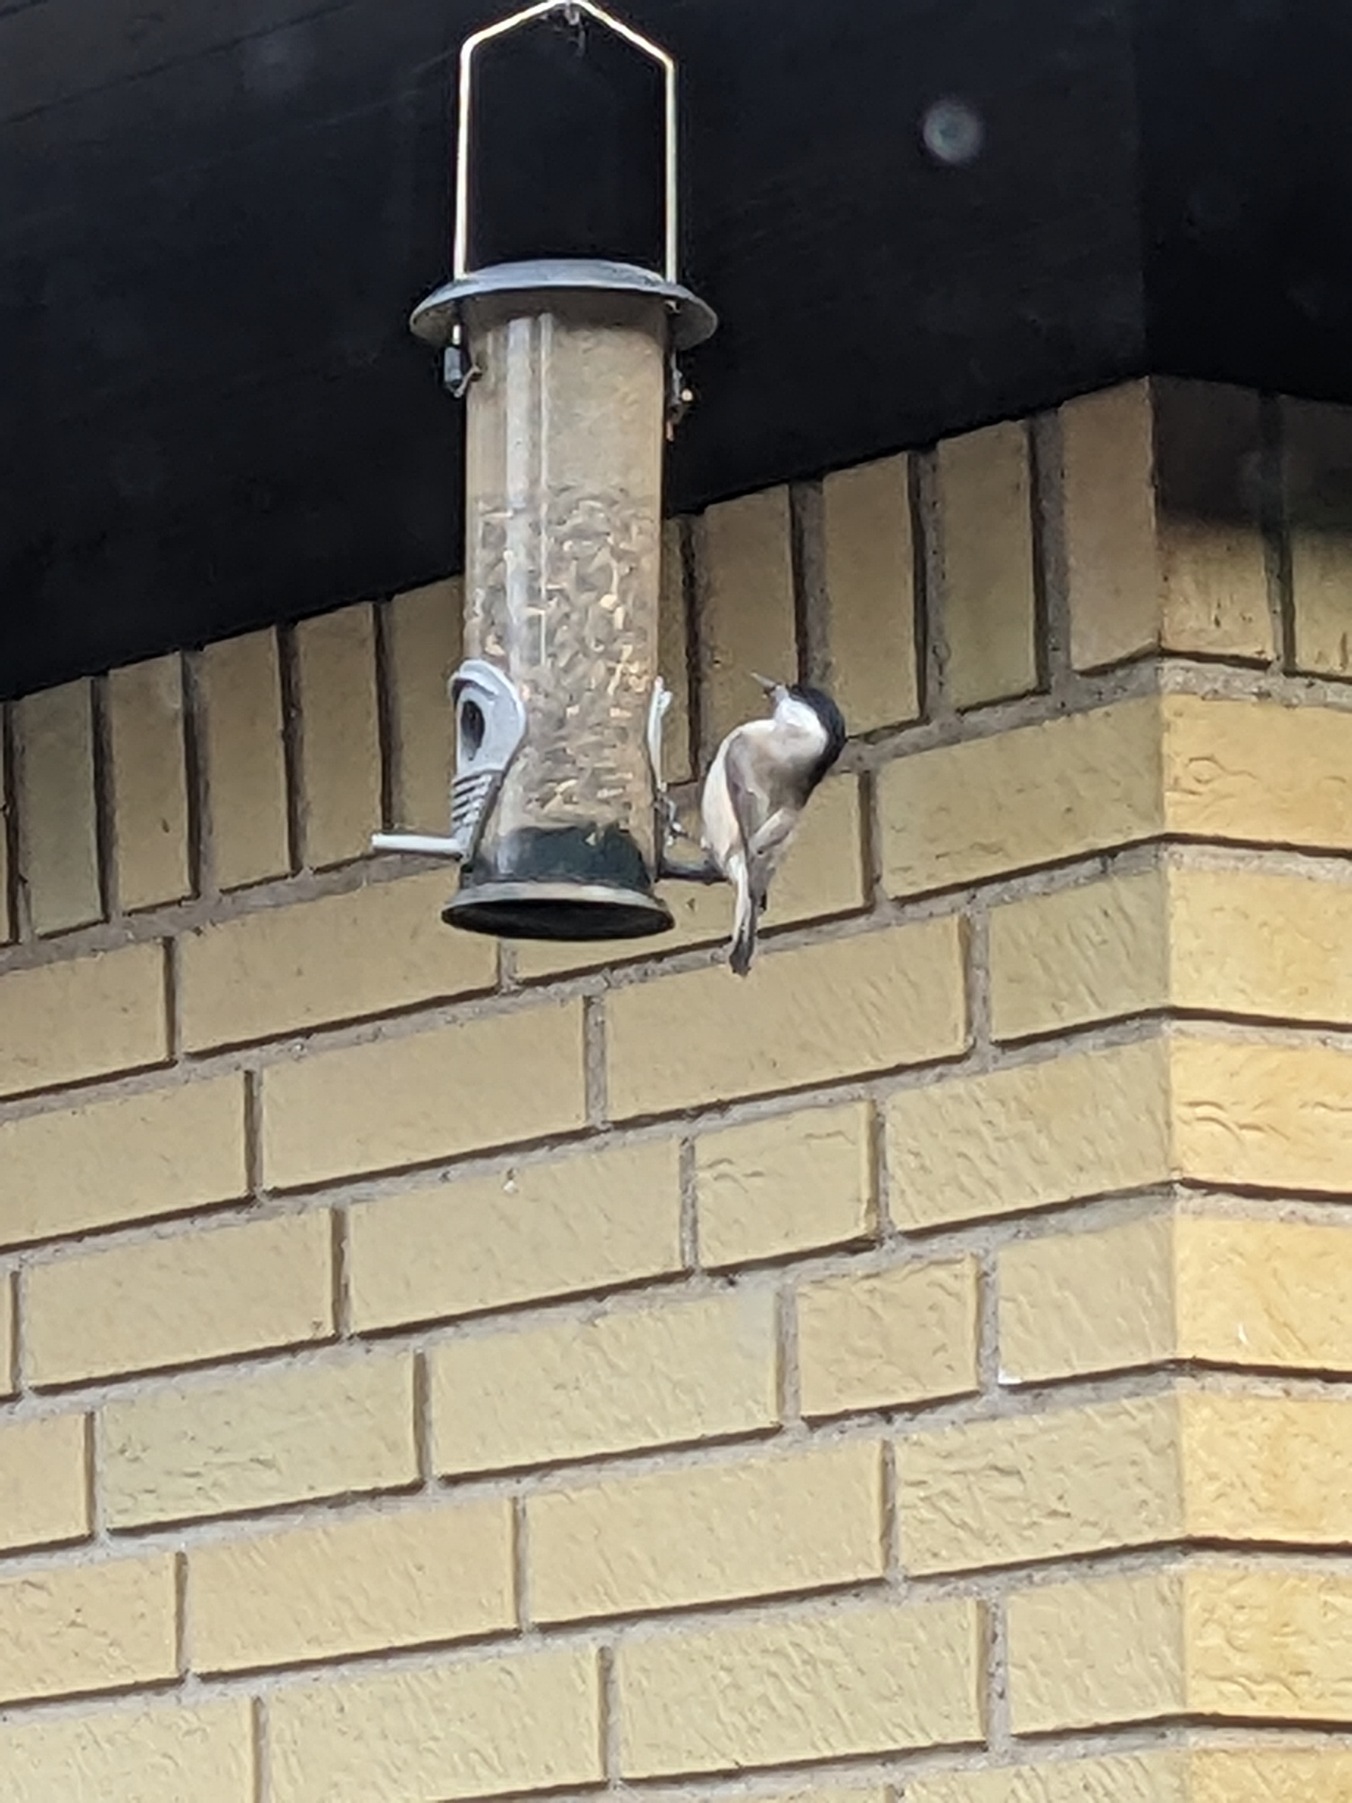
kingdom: Animalia
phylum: Chordata
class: Aves
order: Passeriformes
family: Paridae
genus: Poecile
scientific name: Poecile palustris
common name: Sumpmejse
